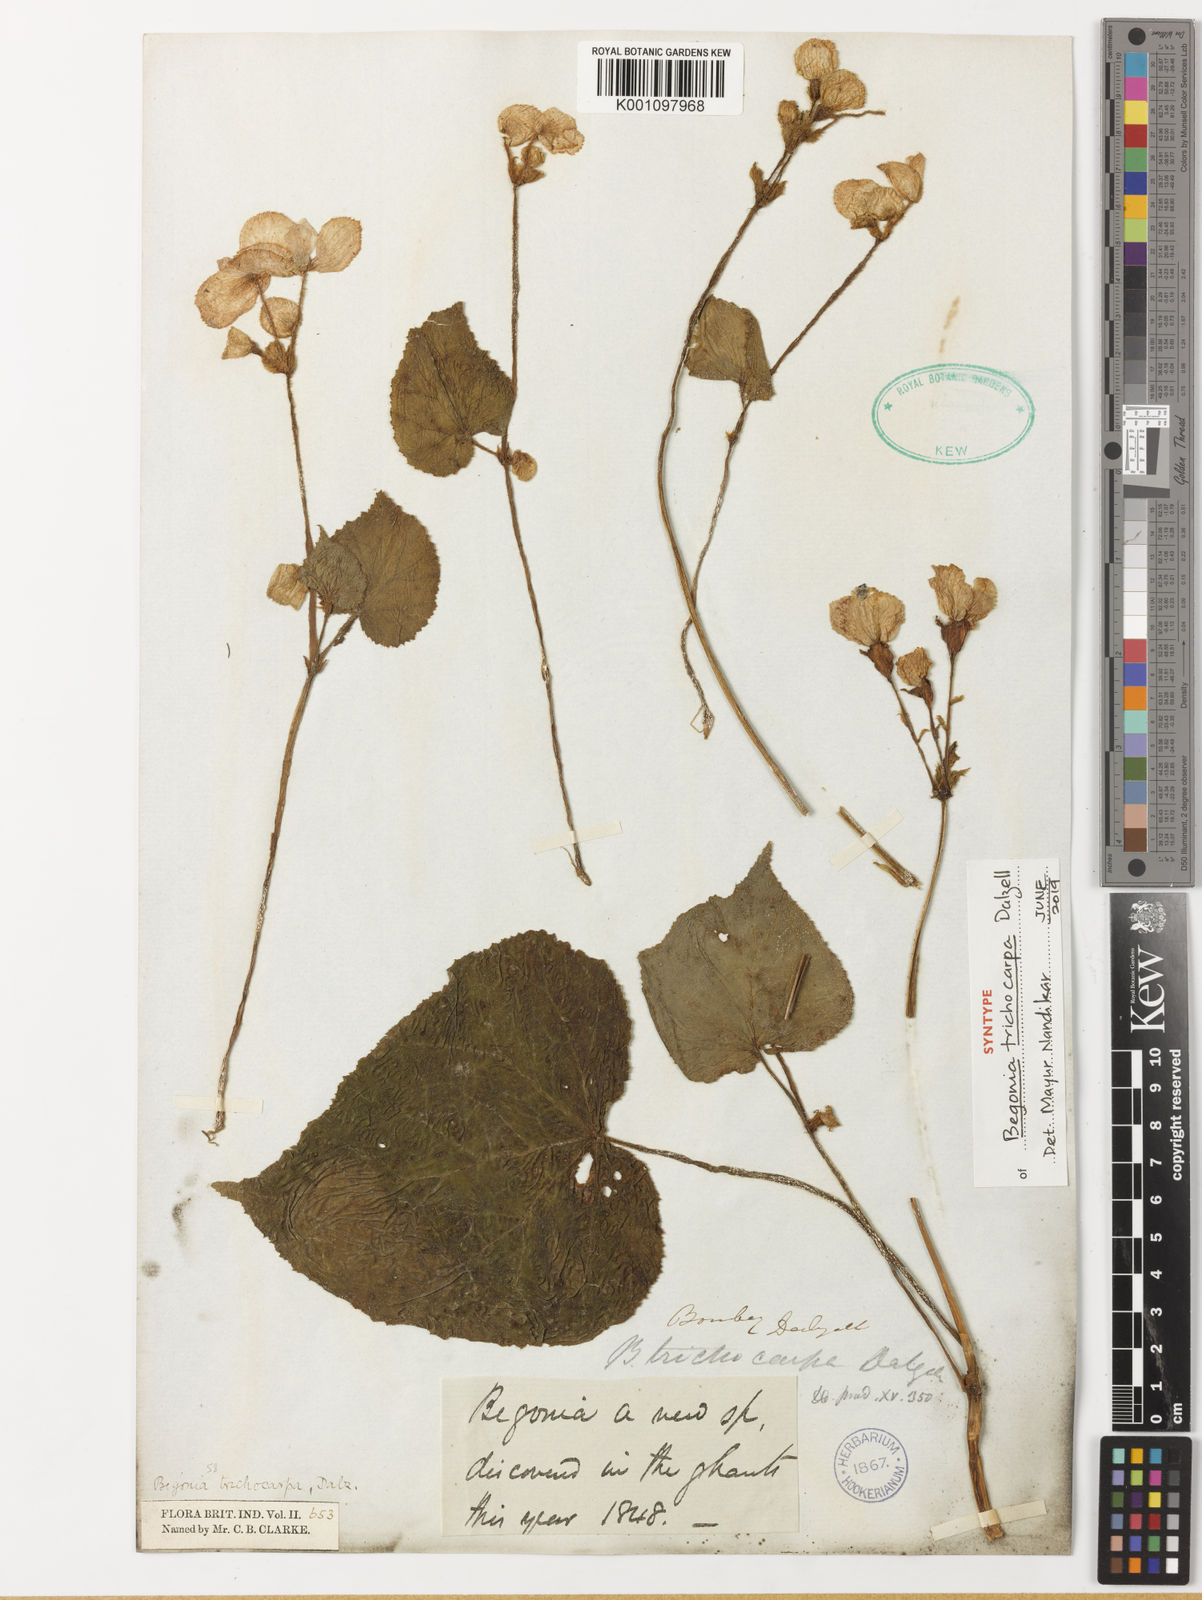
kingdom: Plantae
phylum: Tracheophyta
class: Magnoliopsida
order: Cucurbitales
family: Begoniaceae
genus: Begonia
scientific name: Begonia trichocarpa
